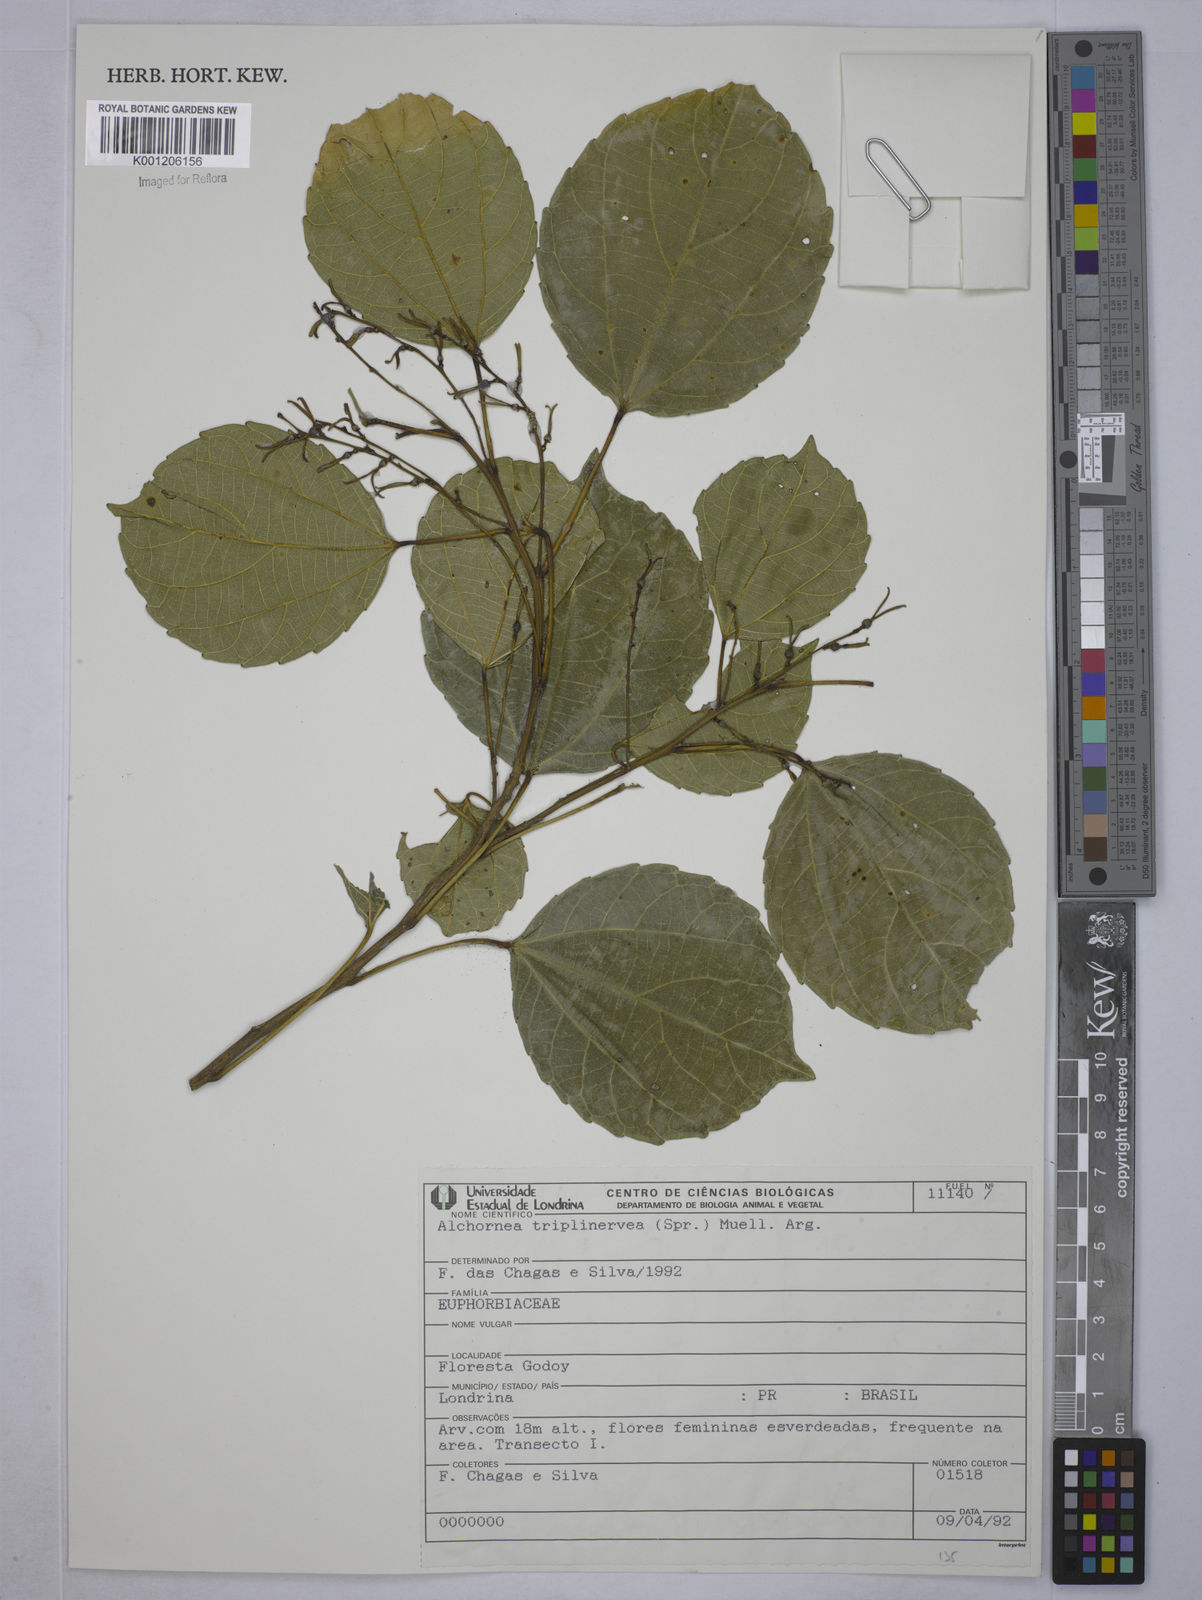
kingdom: Plantae
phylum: Tracheophyta
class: Magnoliopsida
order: Malpighiales
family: Euphorbiaceae
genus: Alchornea
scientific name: Alchornea
